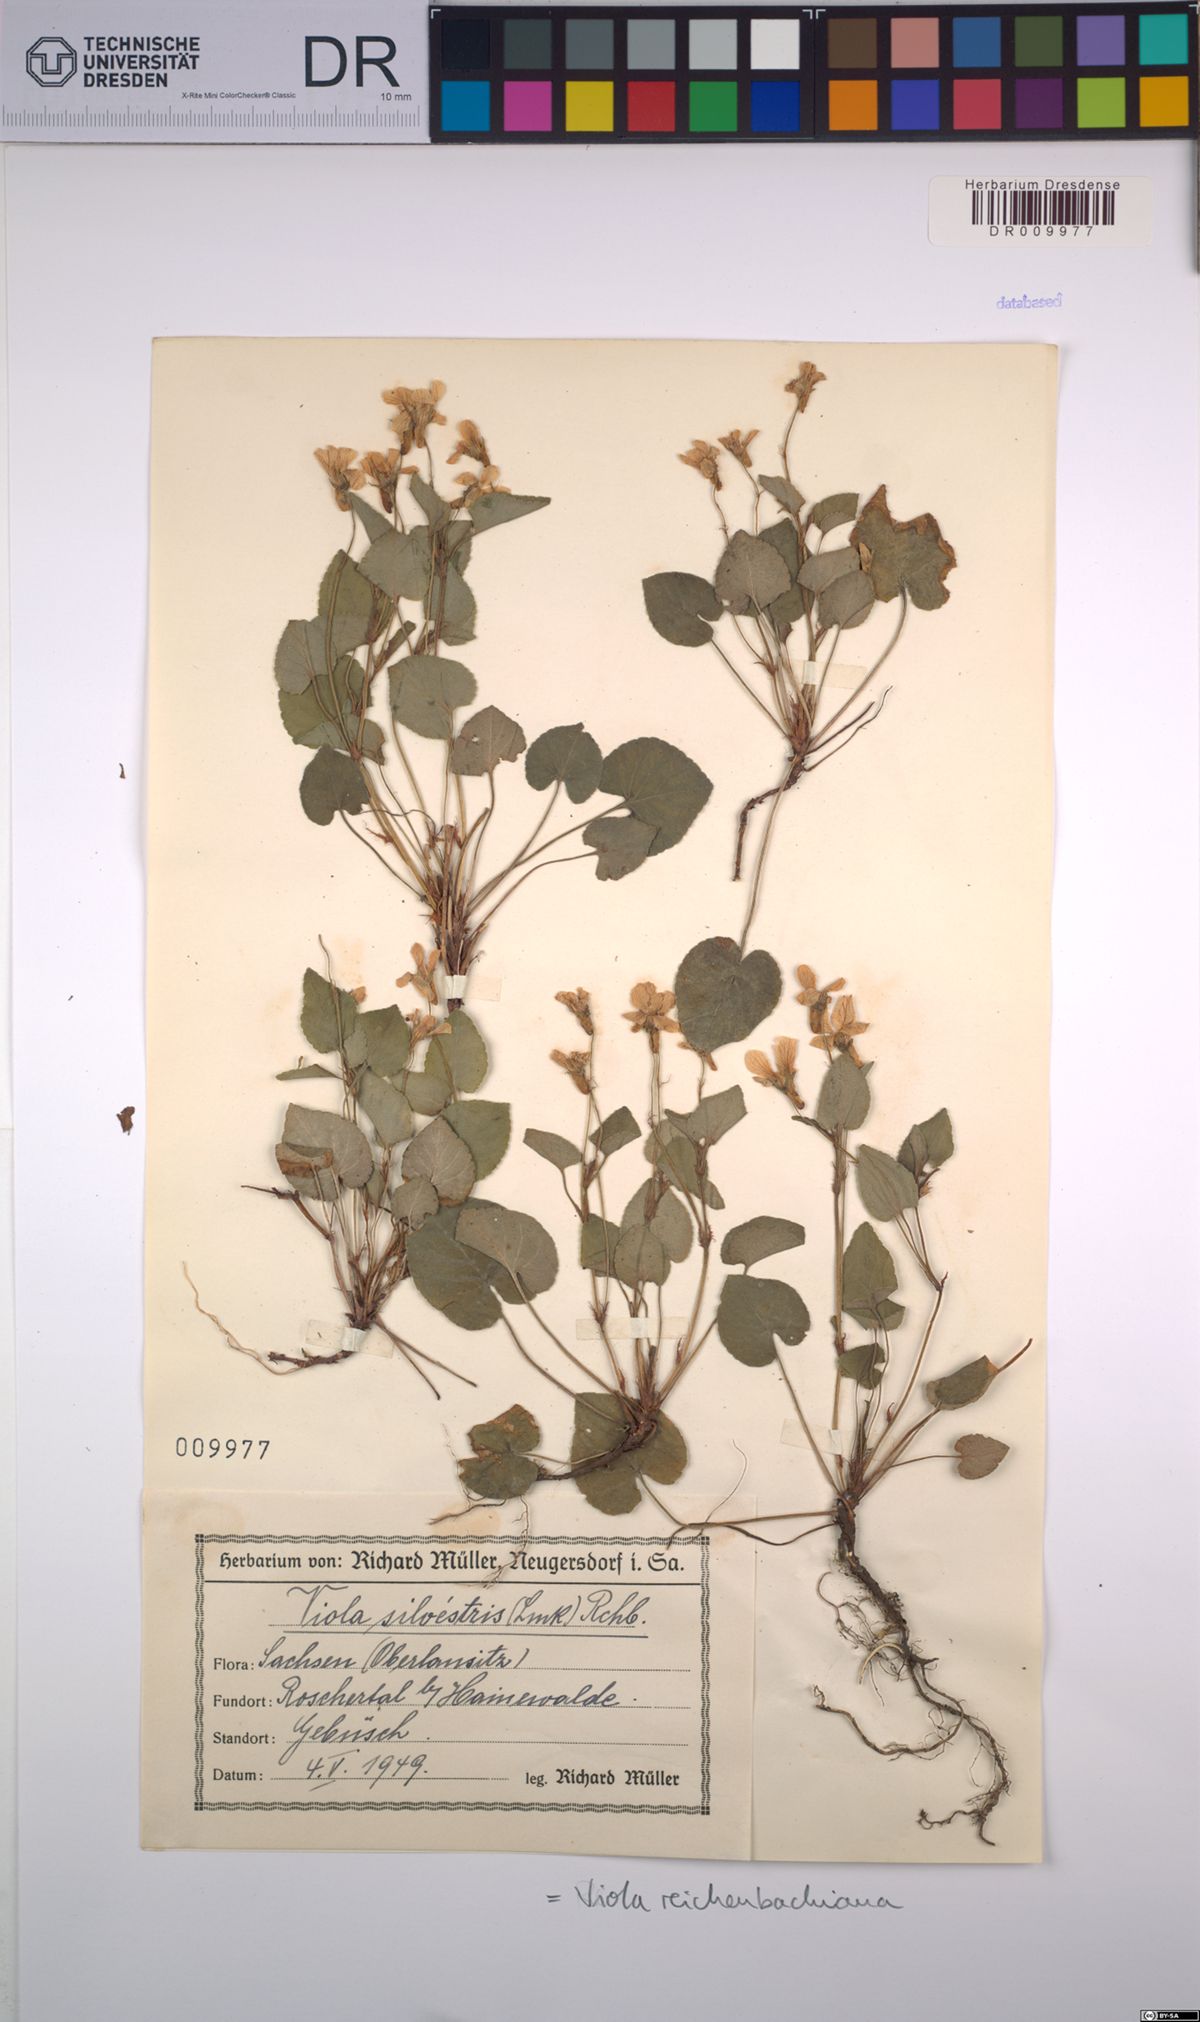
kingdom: Plantae
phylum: Tracheophyta
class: Magnoliopsida
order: Malpighiales
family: Violaceae
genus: Viola
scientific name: Viola reichenbachiana
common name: Early dog-violet
